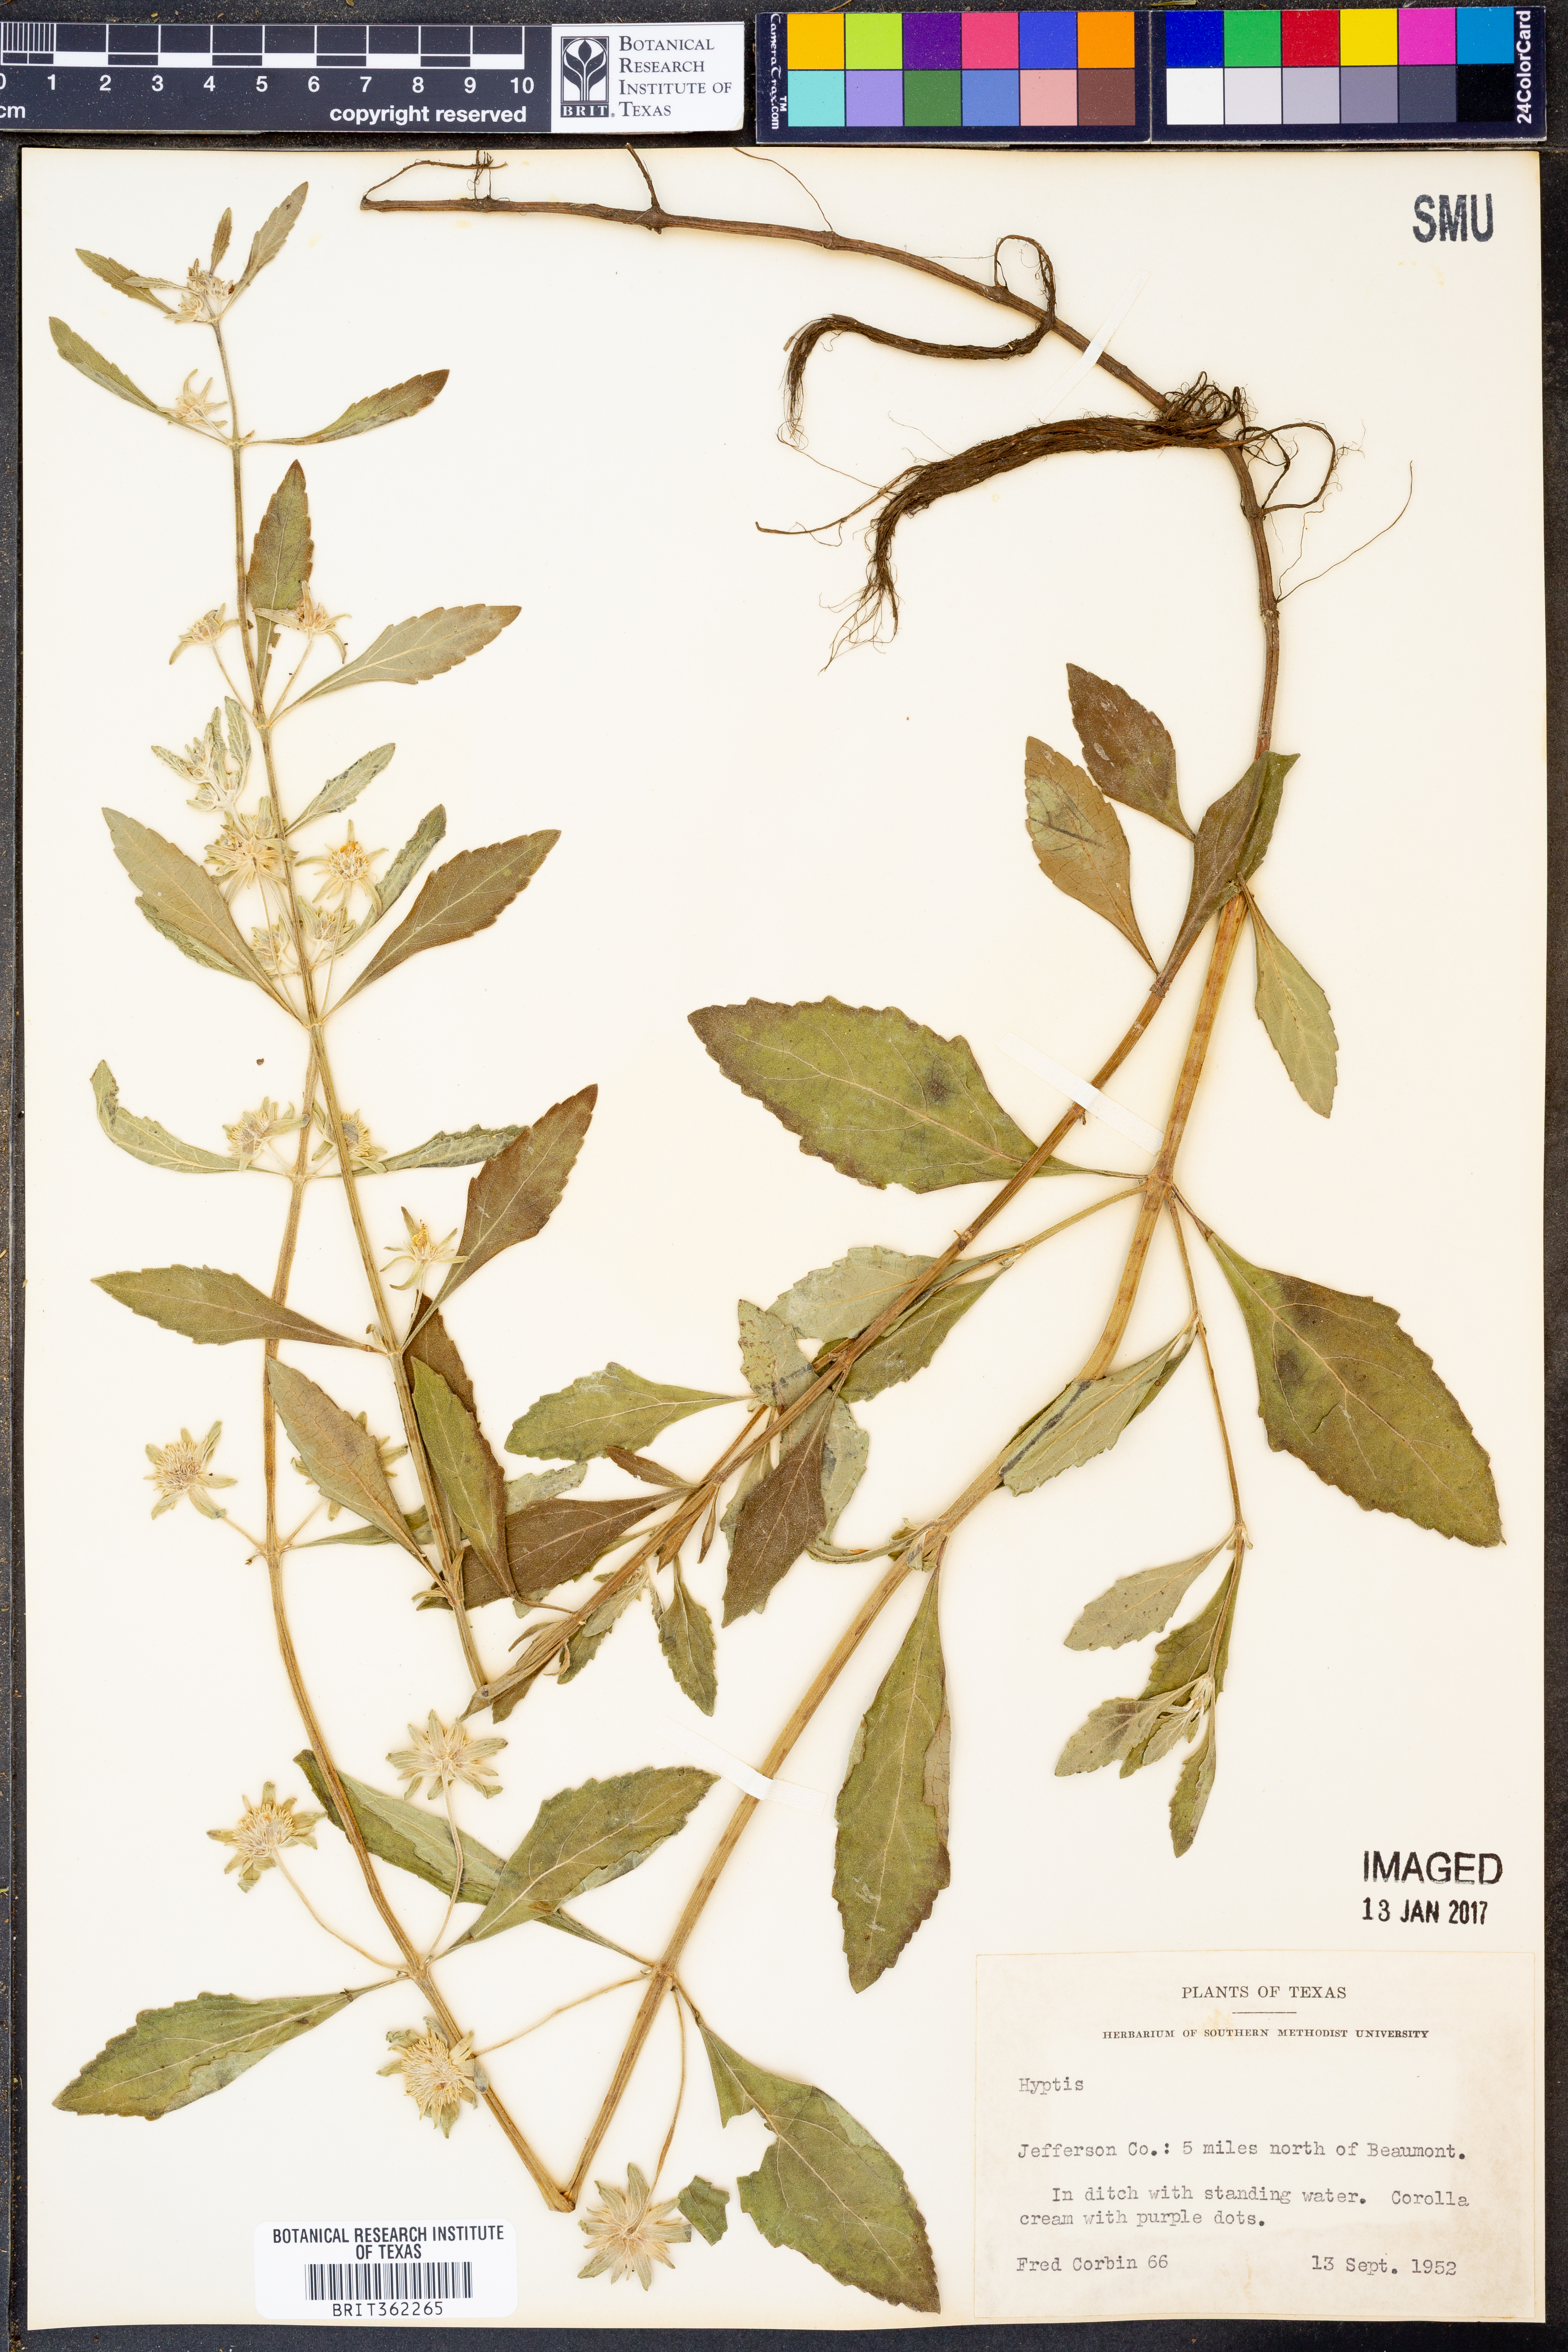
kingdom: Plantae
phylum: Tracheophyta
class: Magnoliopsida
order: Lamiales
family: Lamiaceae
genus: Hyptis
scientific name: Hyptis
